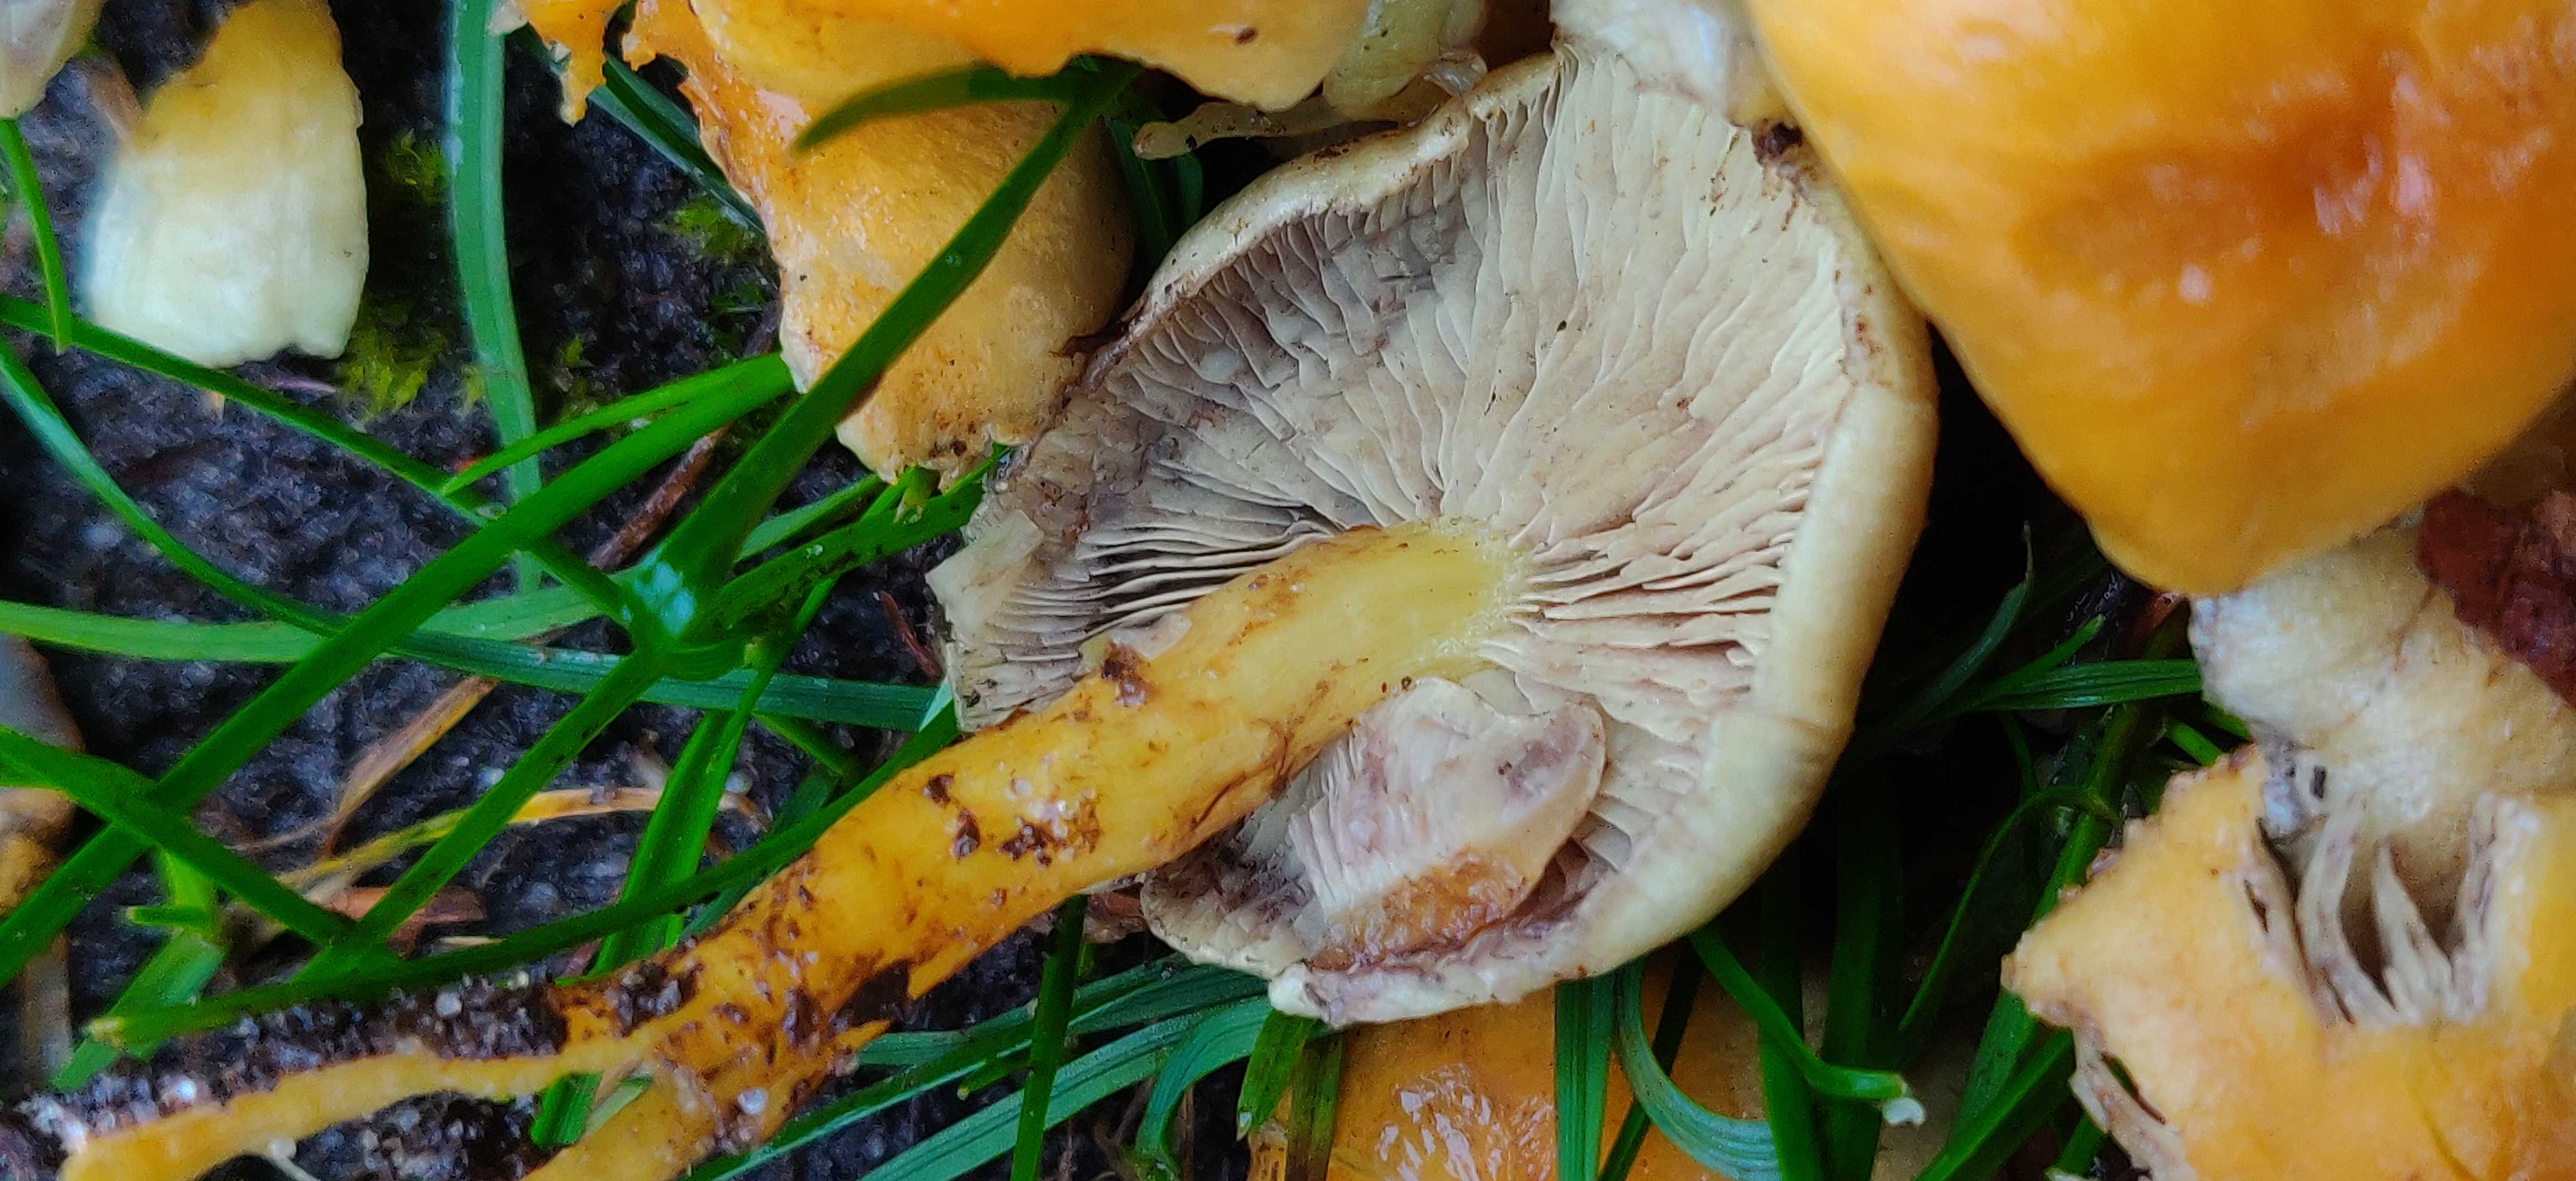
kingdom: Fungi
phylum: Basidiomycota
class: Agaricomycetes
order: Agaricales
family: Strophariaceae
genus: Hypholoma
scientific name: Hypholoma fasciculare
